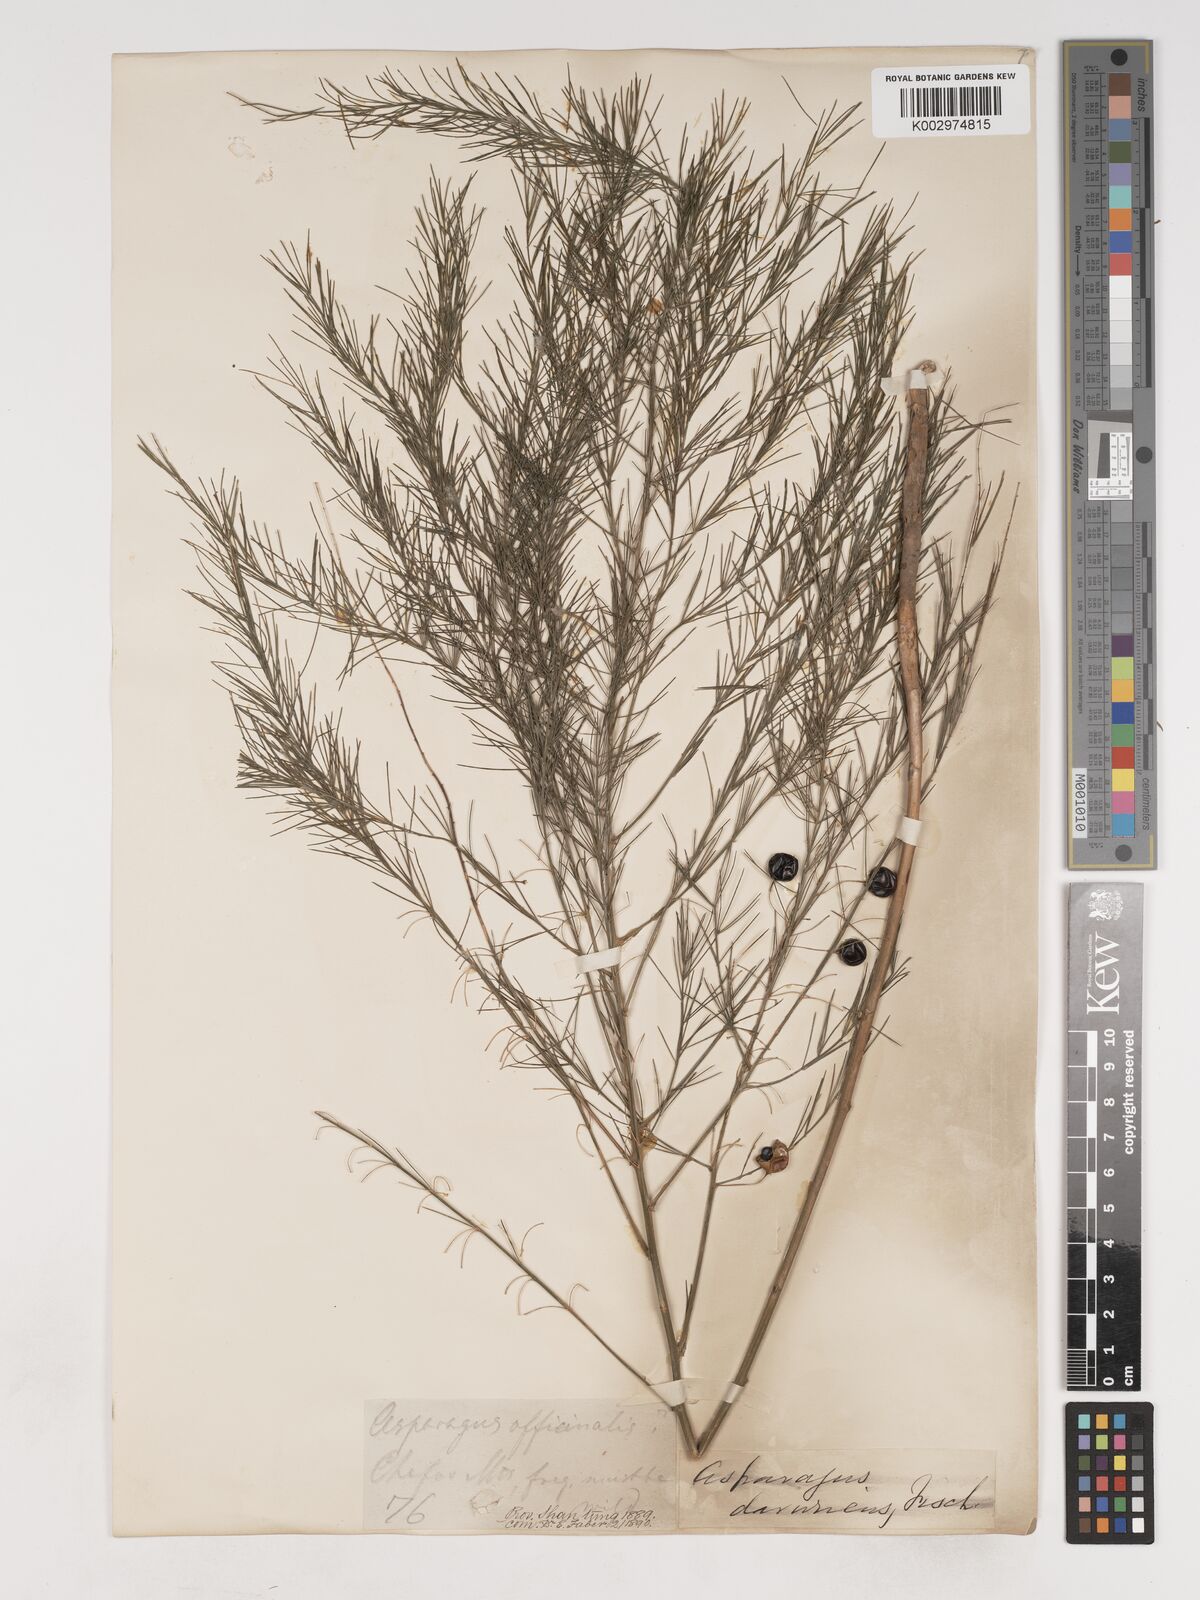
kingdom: Plantae
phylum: Tracheophyta
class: Liliopsida
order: Asparagales
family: Asparagaceae
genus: Asparagus
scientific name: Asparagus oligoclonos
